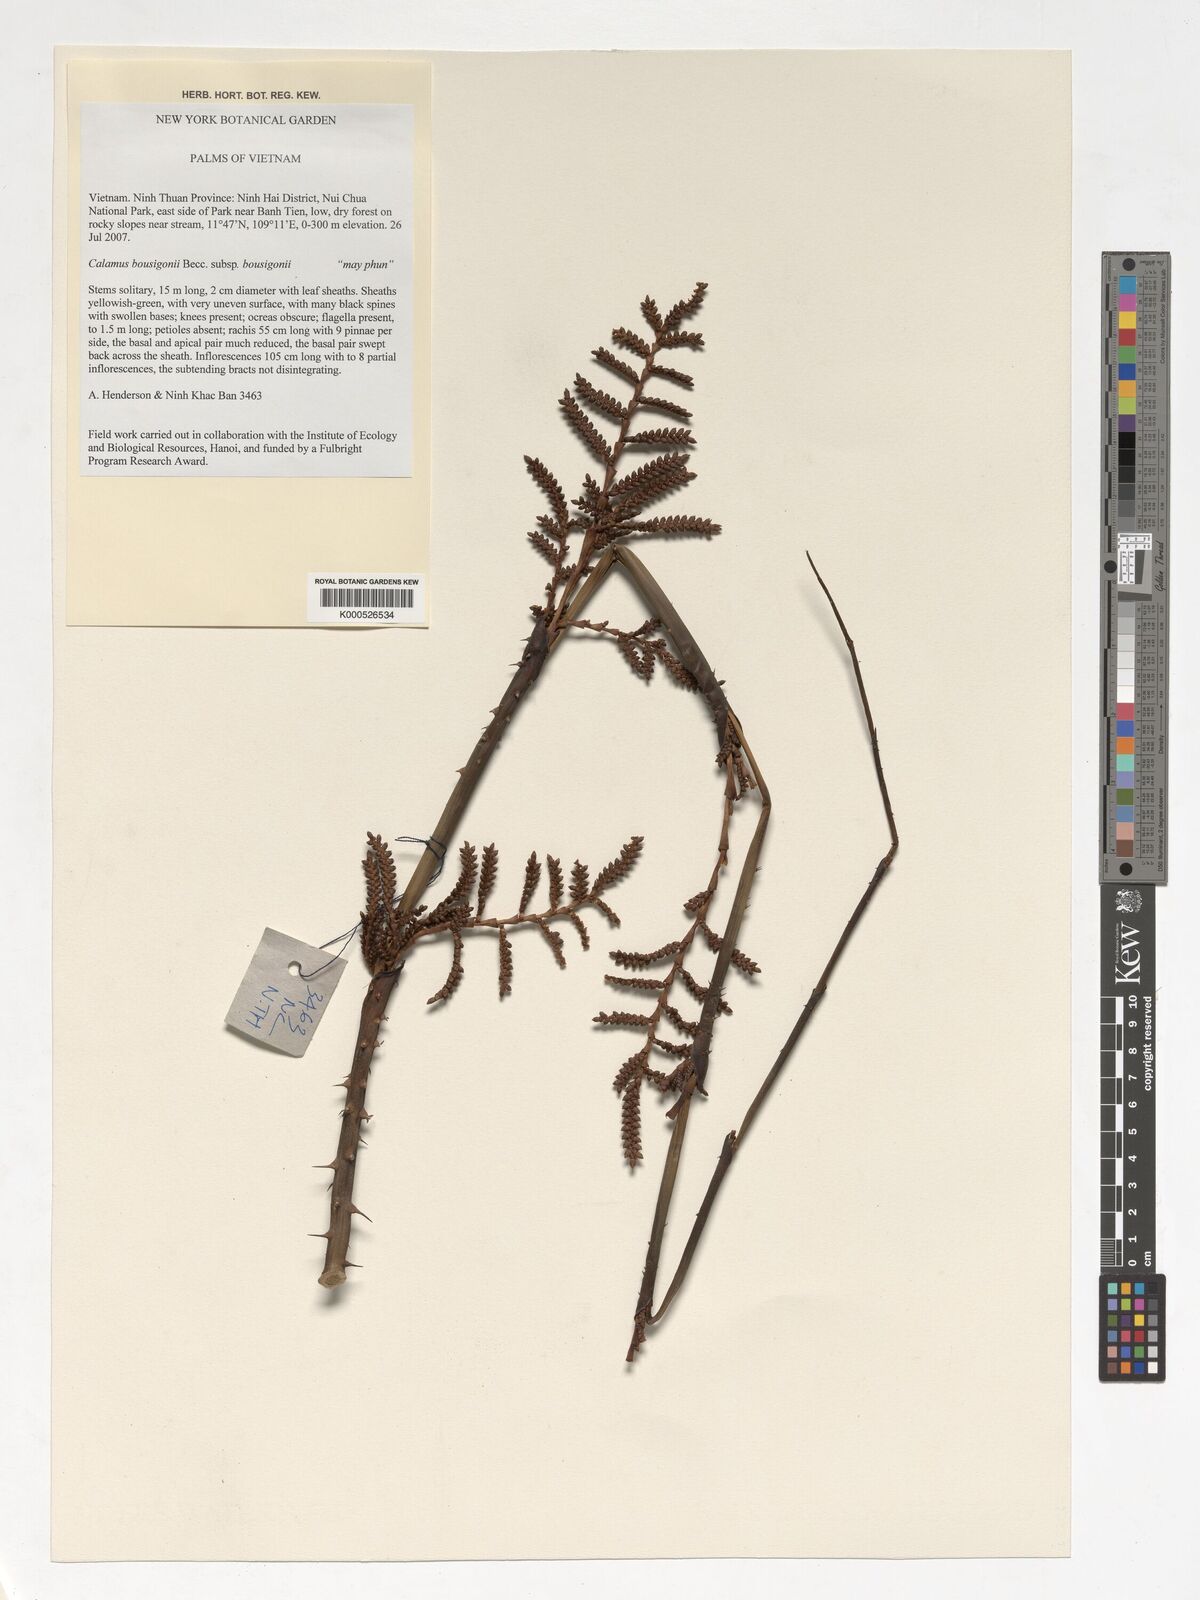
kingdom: Plantae
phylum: Tracheophyta
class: Liliopsida
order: Arecales
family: Arecaceae
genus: Calamus
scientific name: Calamus bousigonii
